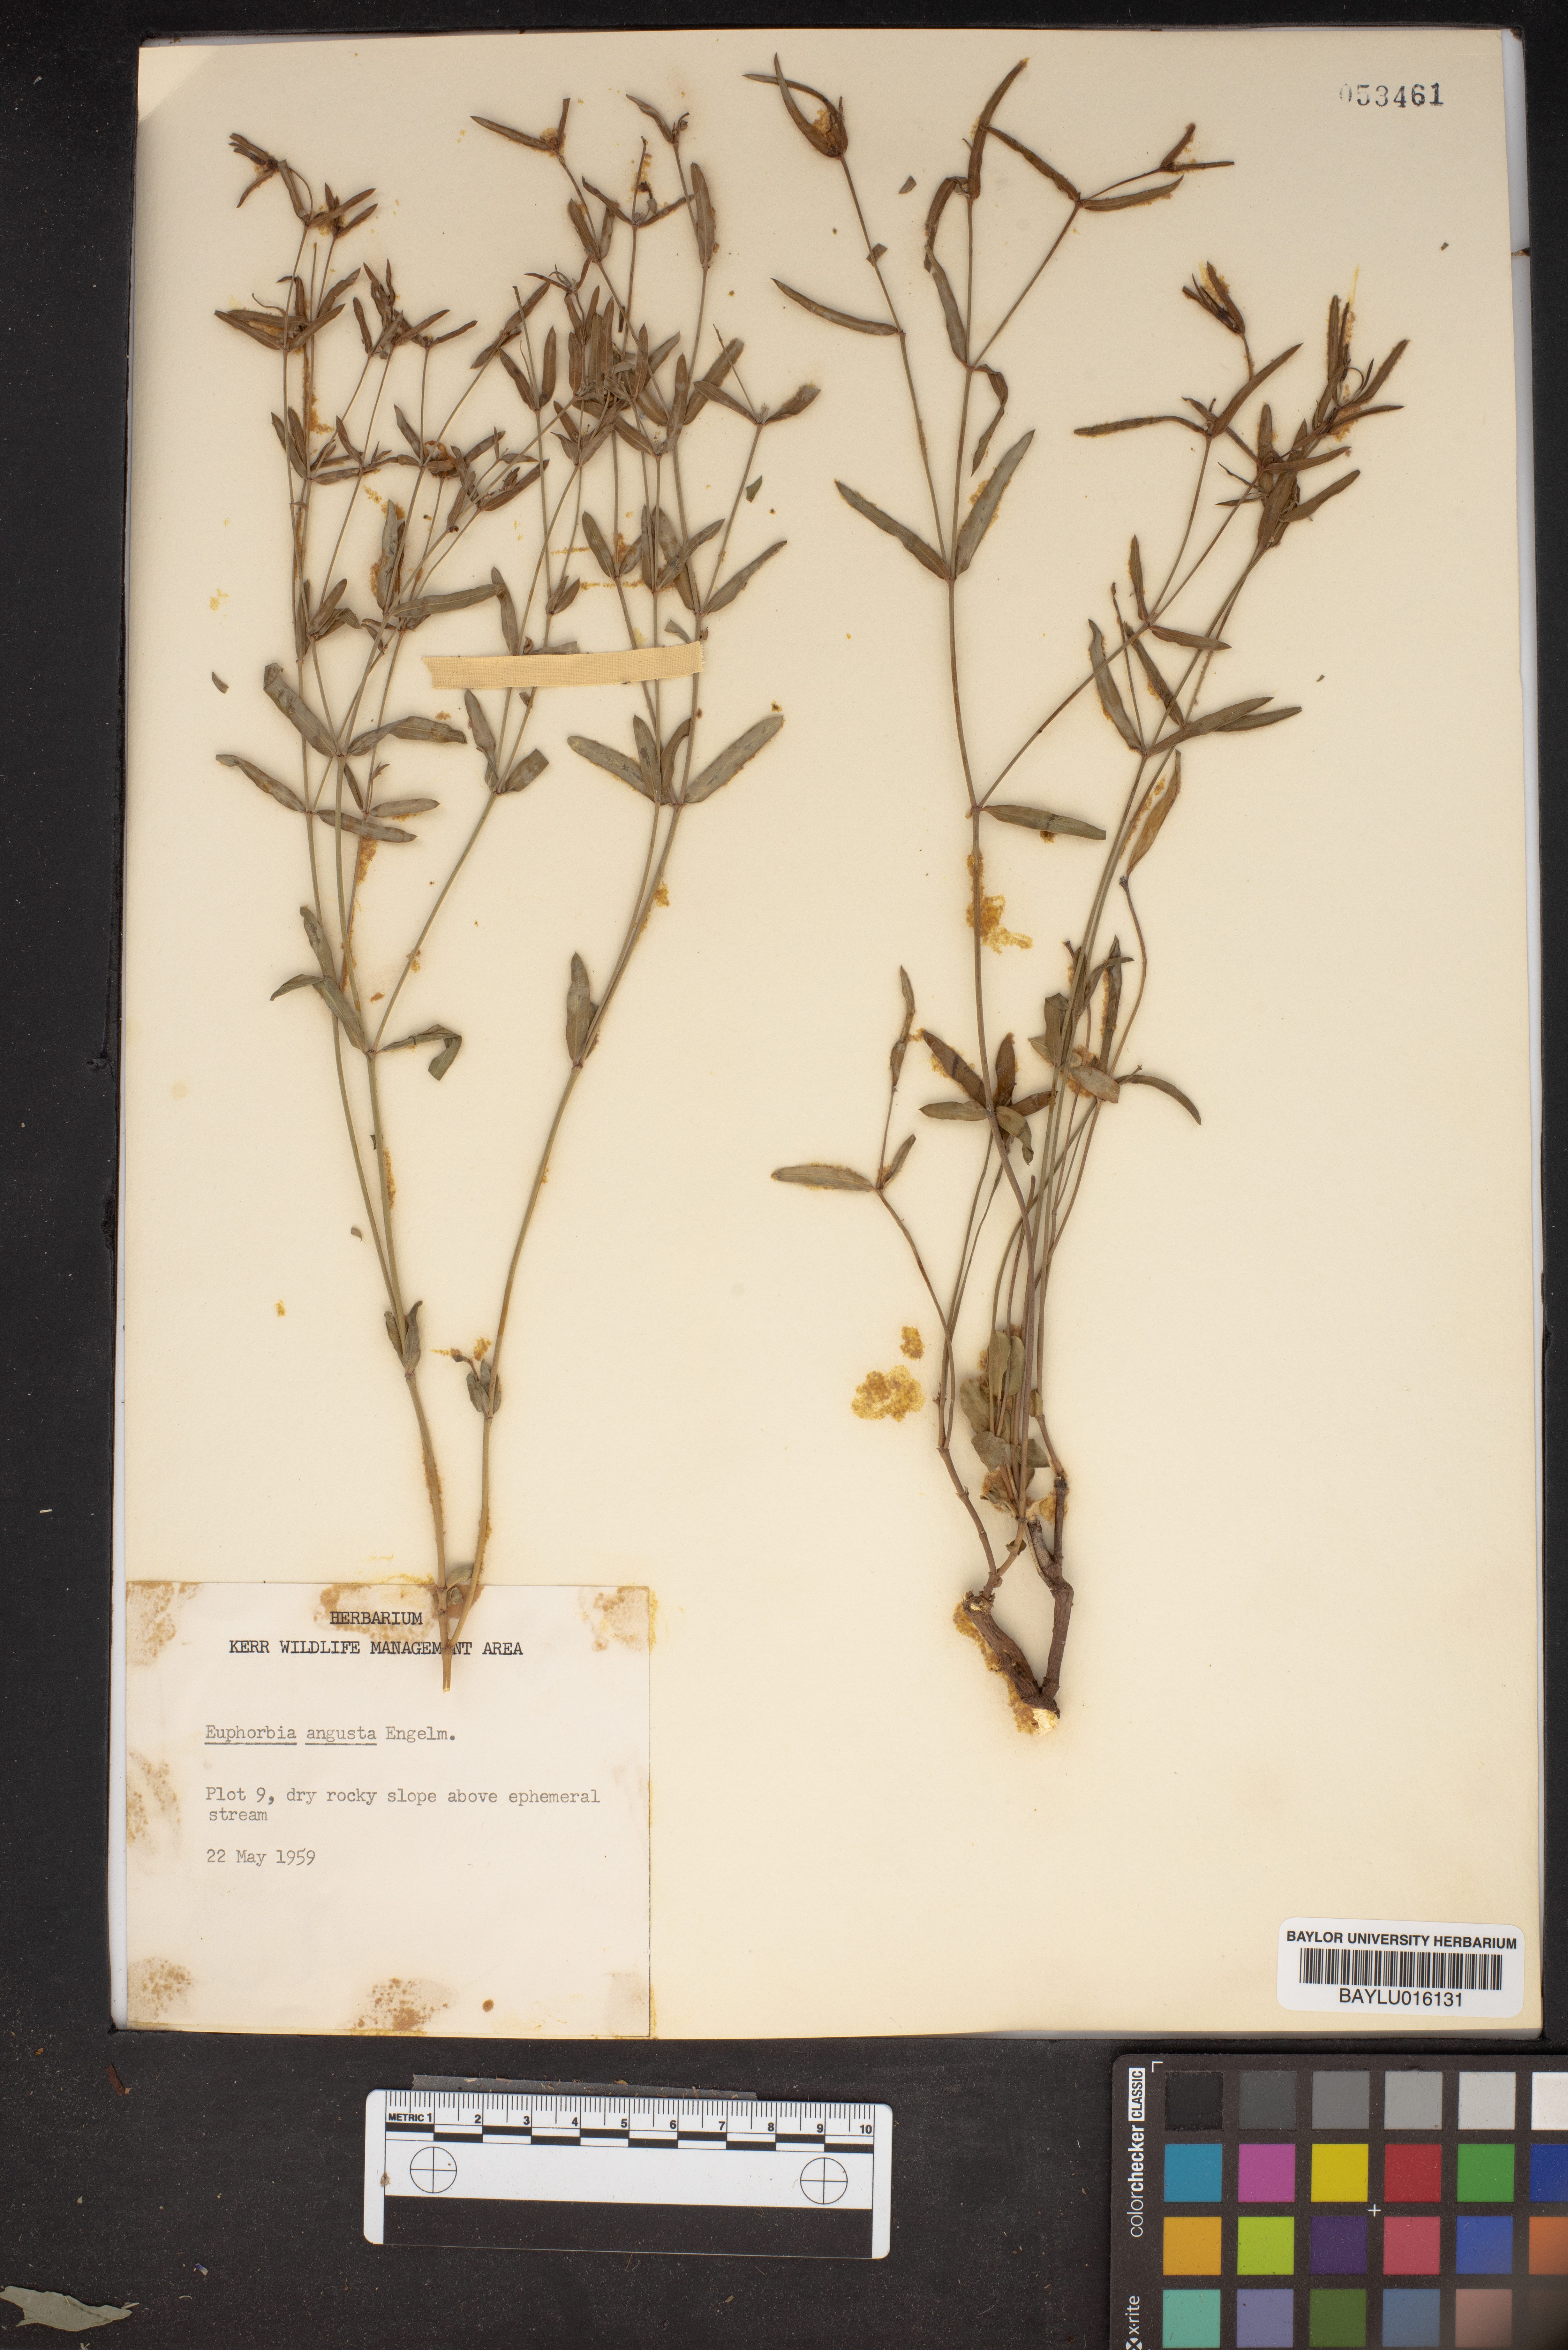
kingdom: Plantae
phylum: Tracheophyta
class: Magnoliopsida
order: Malpighiales
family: Euphorbiaceae
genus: Euphorbia
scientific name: Euphorbia angusta
